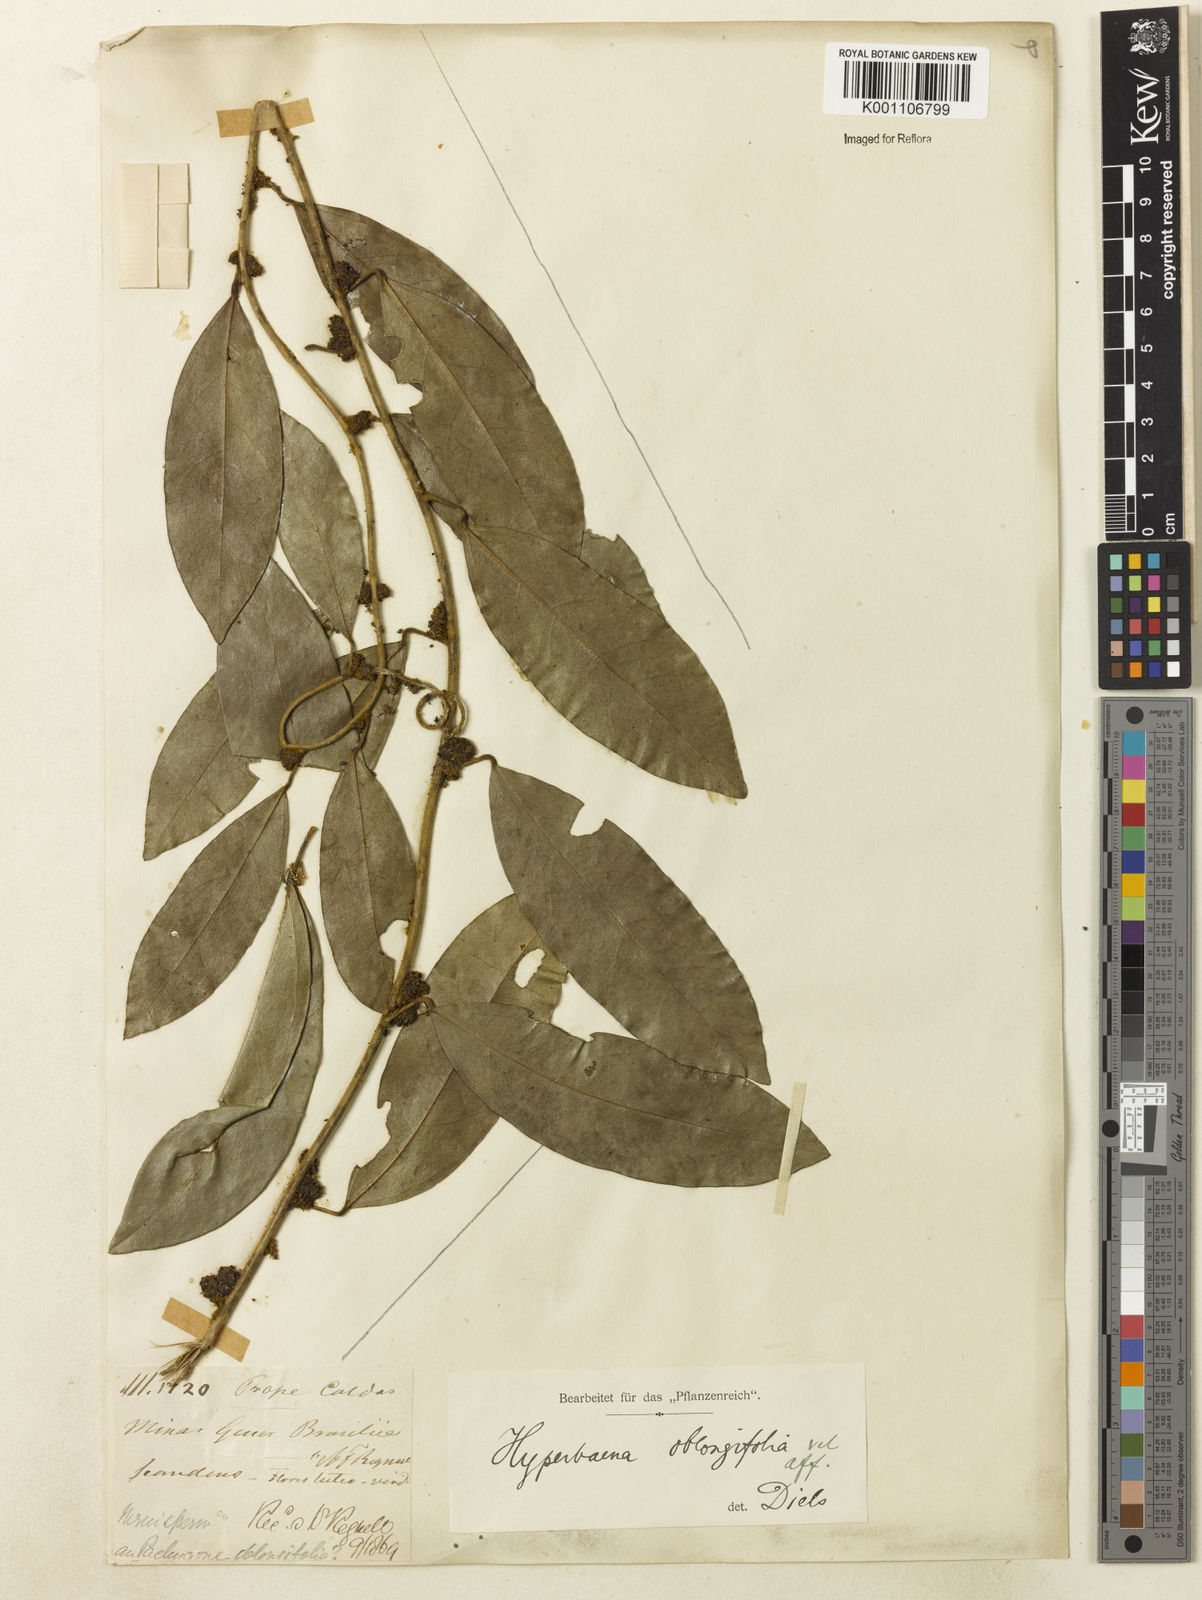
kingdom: Plantae
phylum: Tracheophyta
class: Magnoliopsida
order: Ranunculales
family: Menispermaceae
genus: Hyperbaena
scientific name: Hyperbaena hassleri
